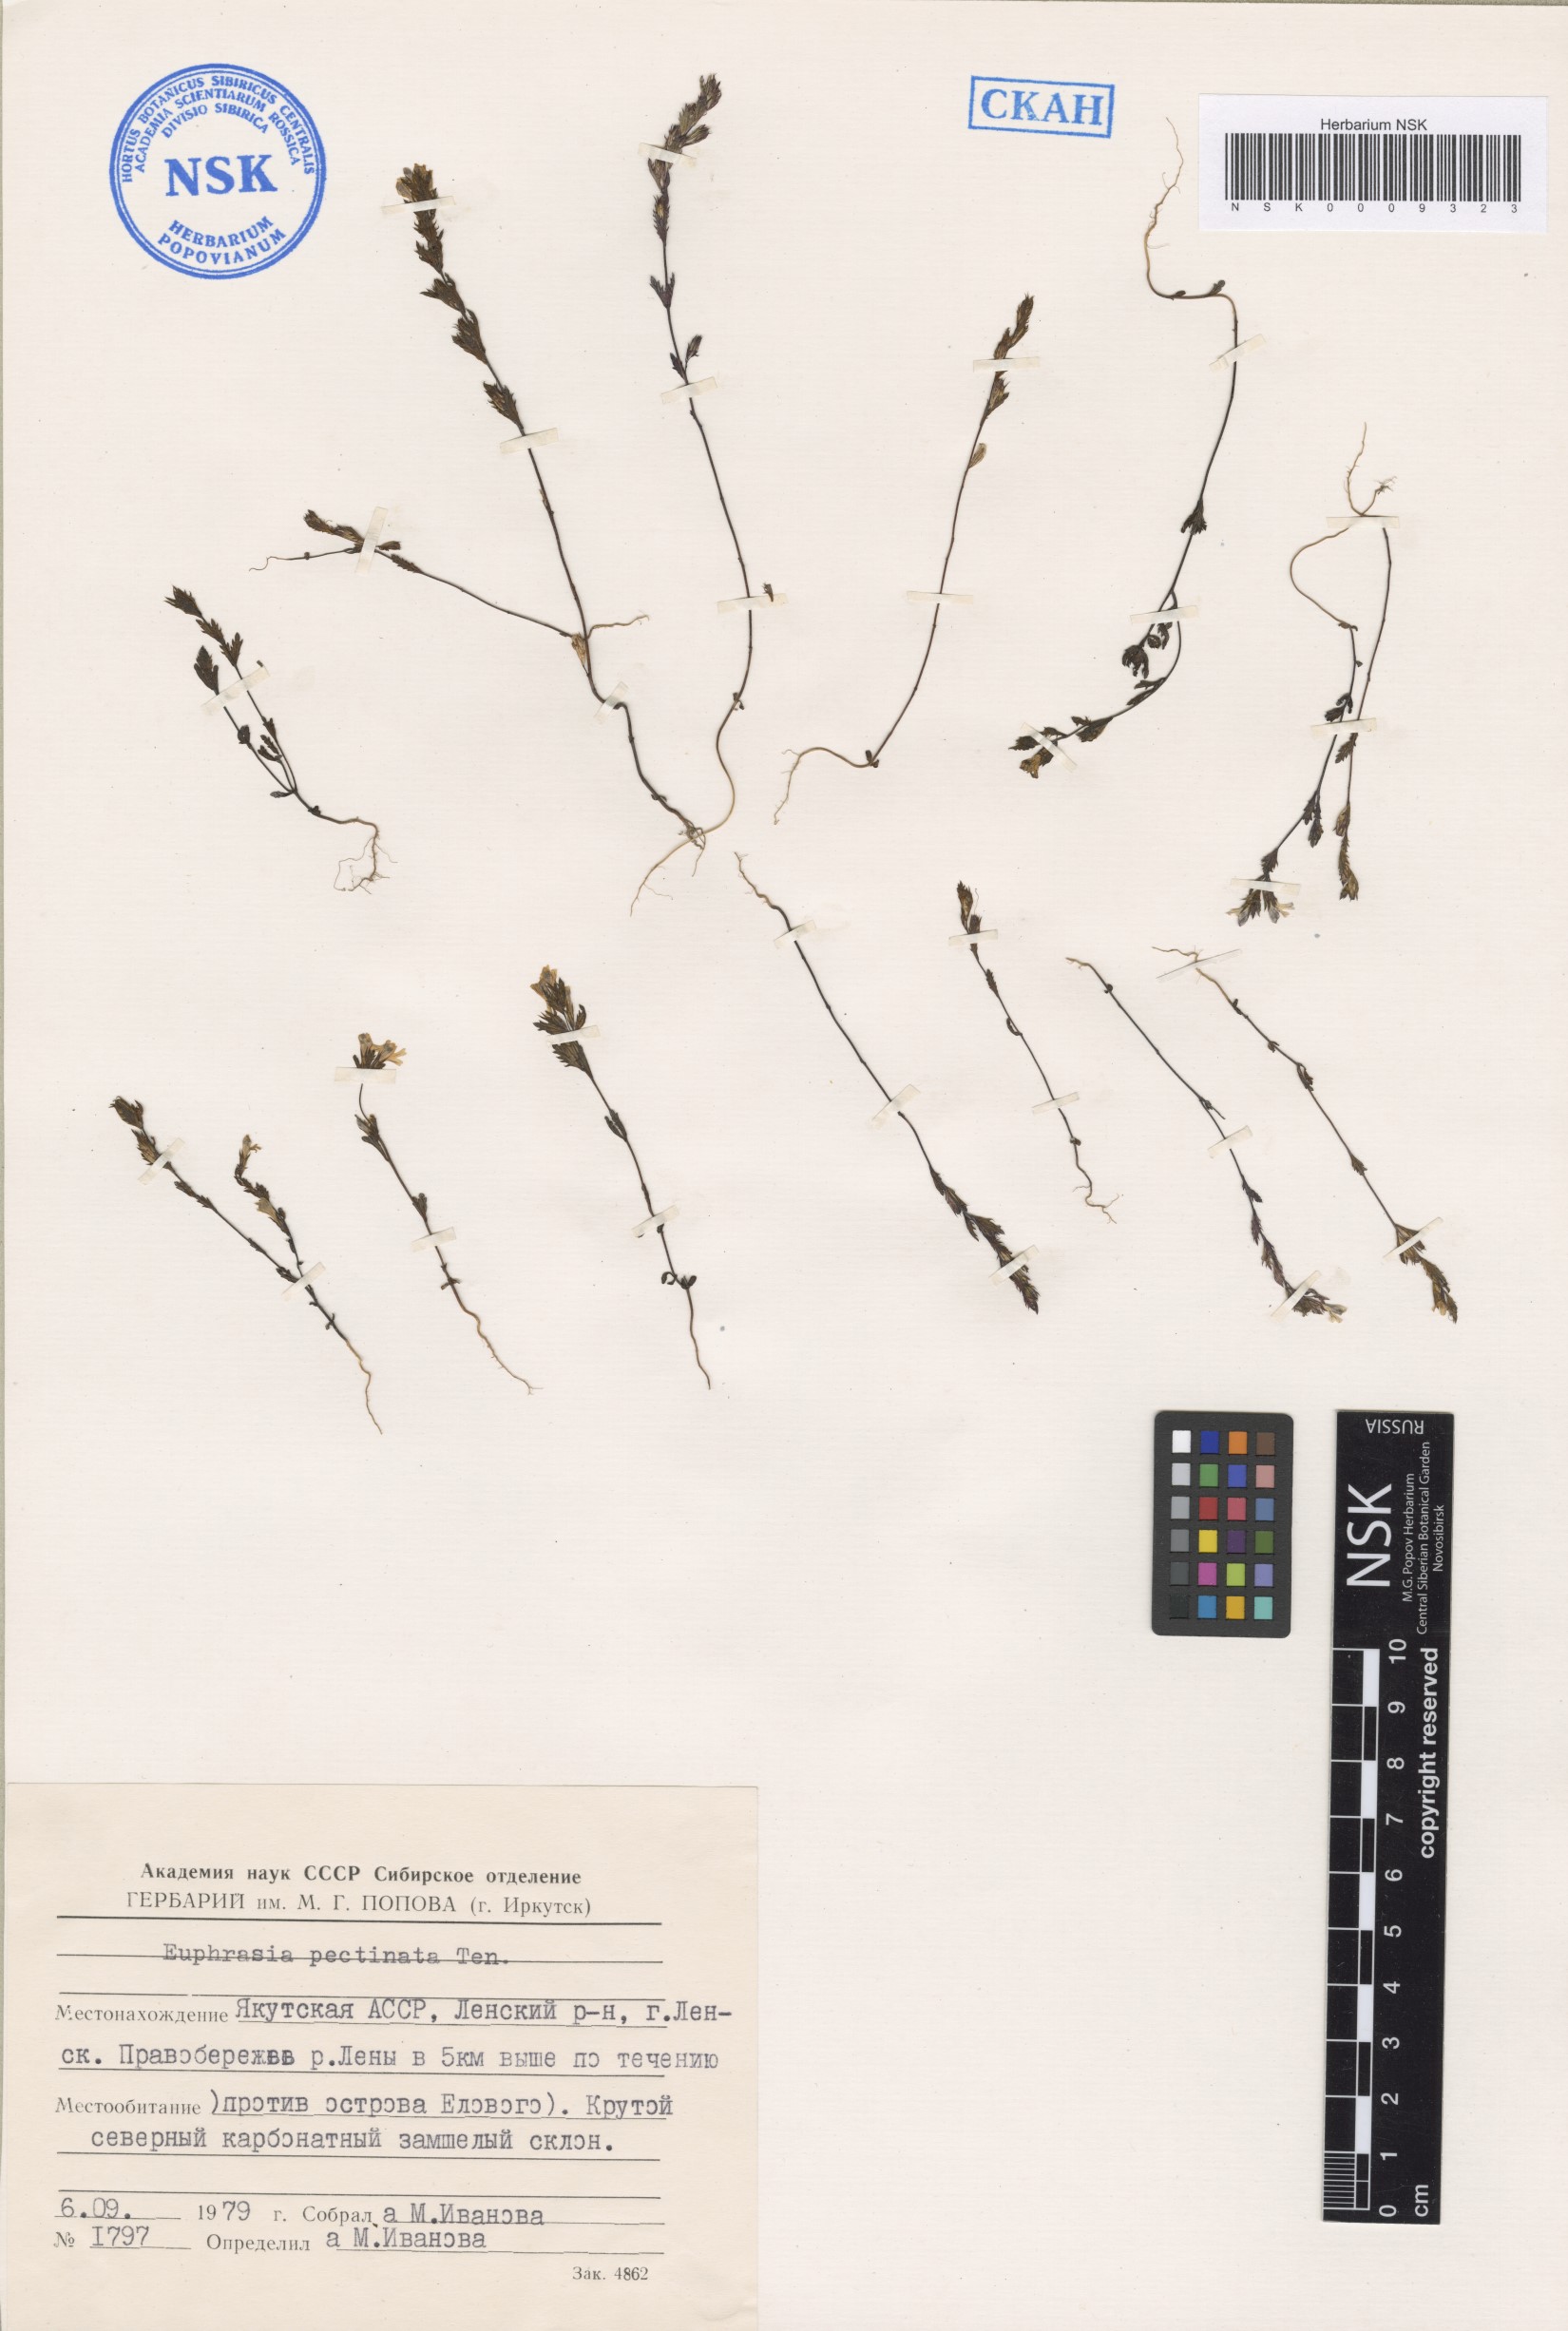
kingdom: Plantae
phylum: Tracheophyta
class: Magnoliopsida
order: Lamiales
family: Orobanchaceae
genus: Euphrasia
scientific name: Euphrasia pectinata
